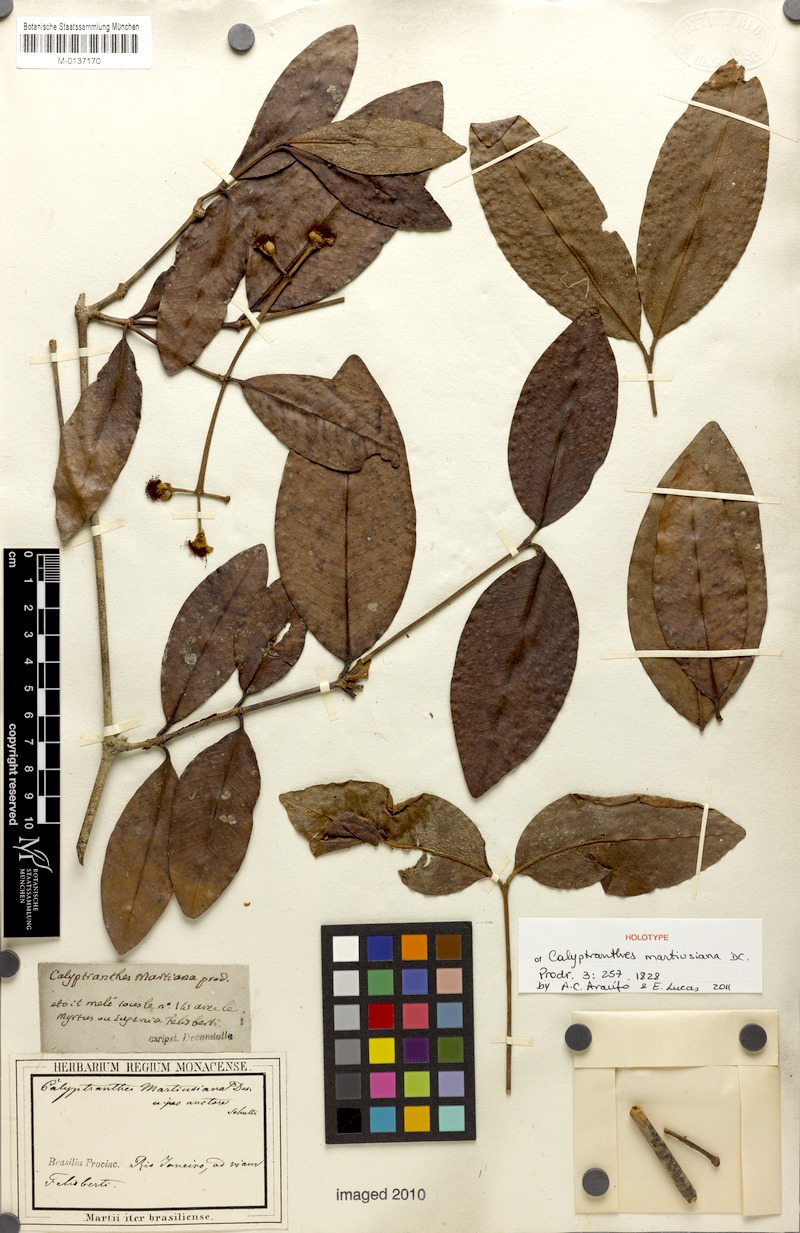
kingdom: Plantae
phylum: Tracheophyta
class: Magnoliopsida
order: Myrtales
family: Myrtaceae
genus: Myrcia
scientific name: Myrcia martiusiana
